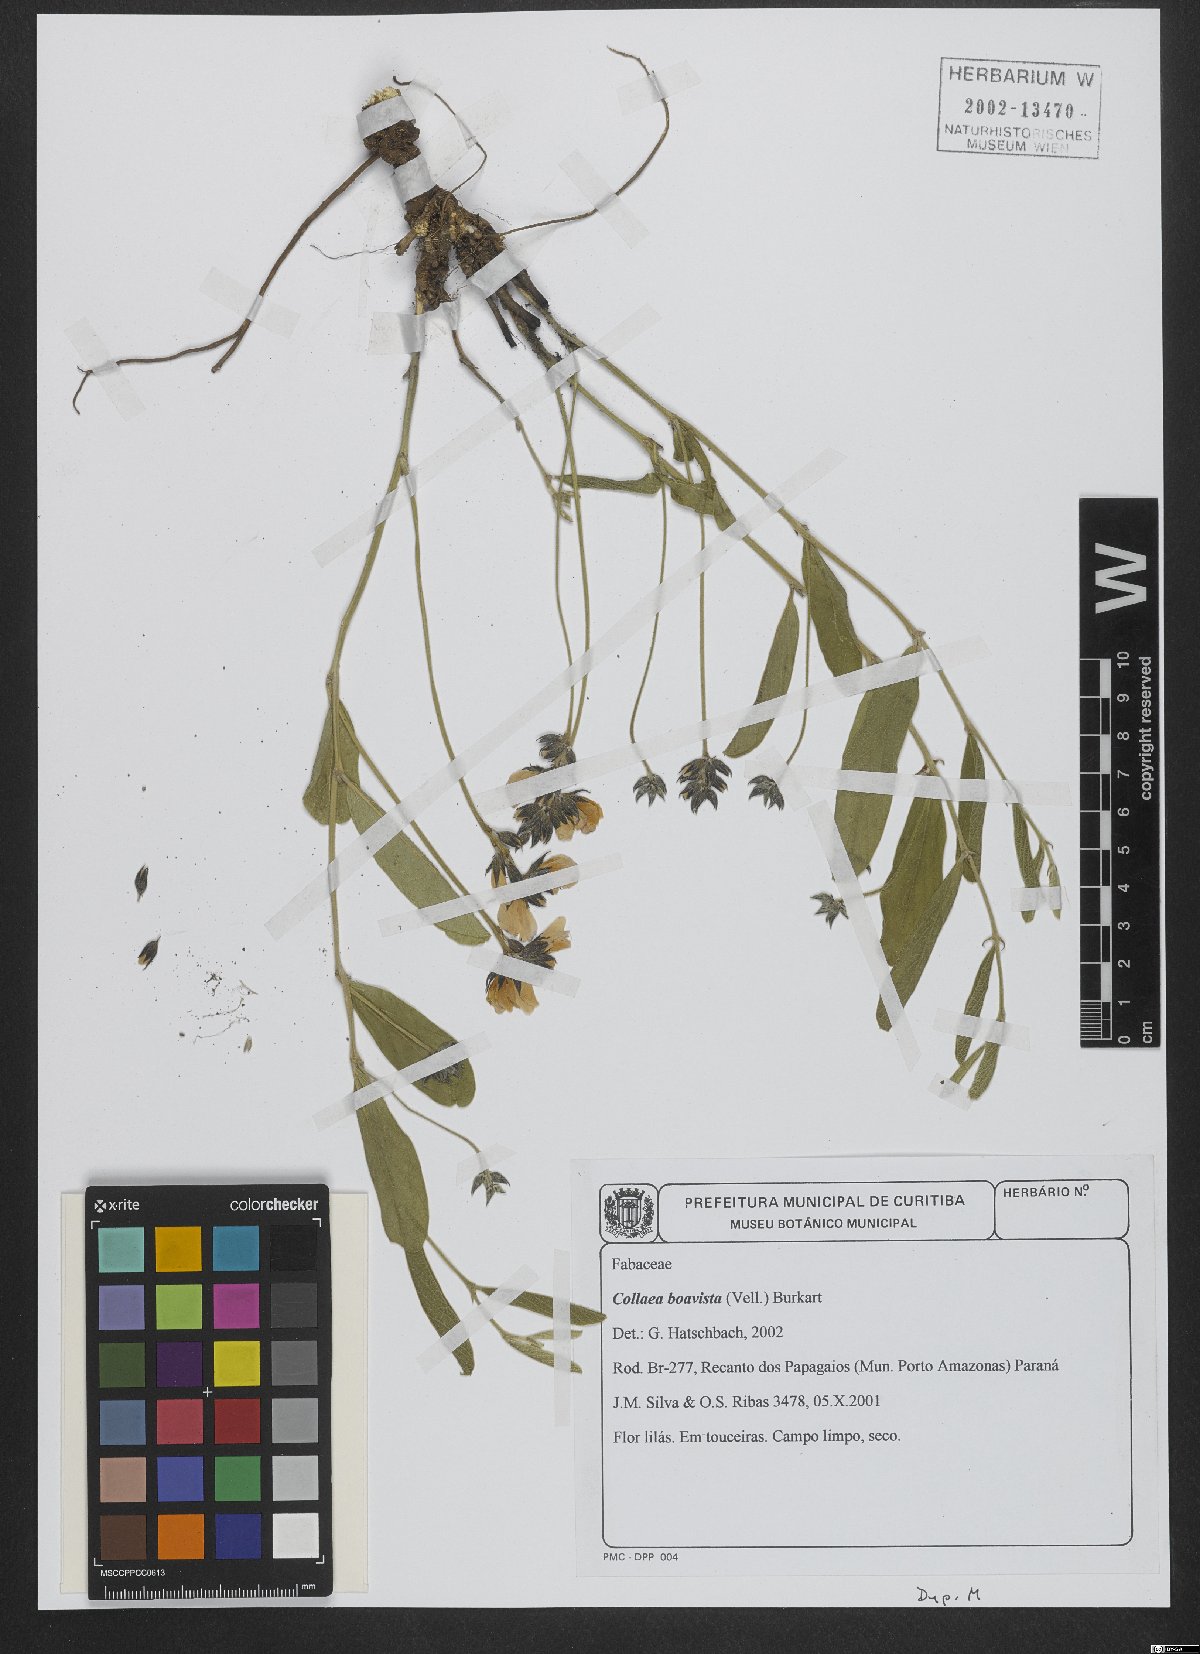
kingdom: Plantae
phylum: Tracheophyta
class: Magnoliopsida
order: Fabales
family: Fabaceae
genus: Collaea
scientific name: Collaea
